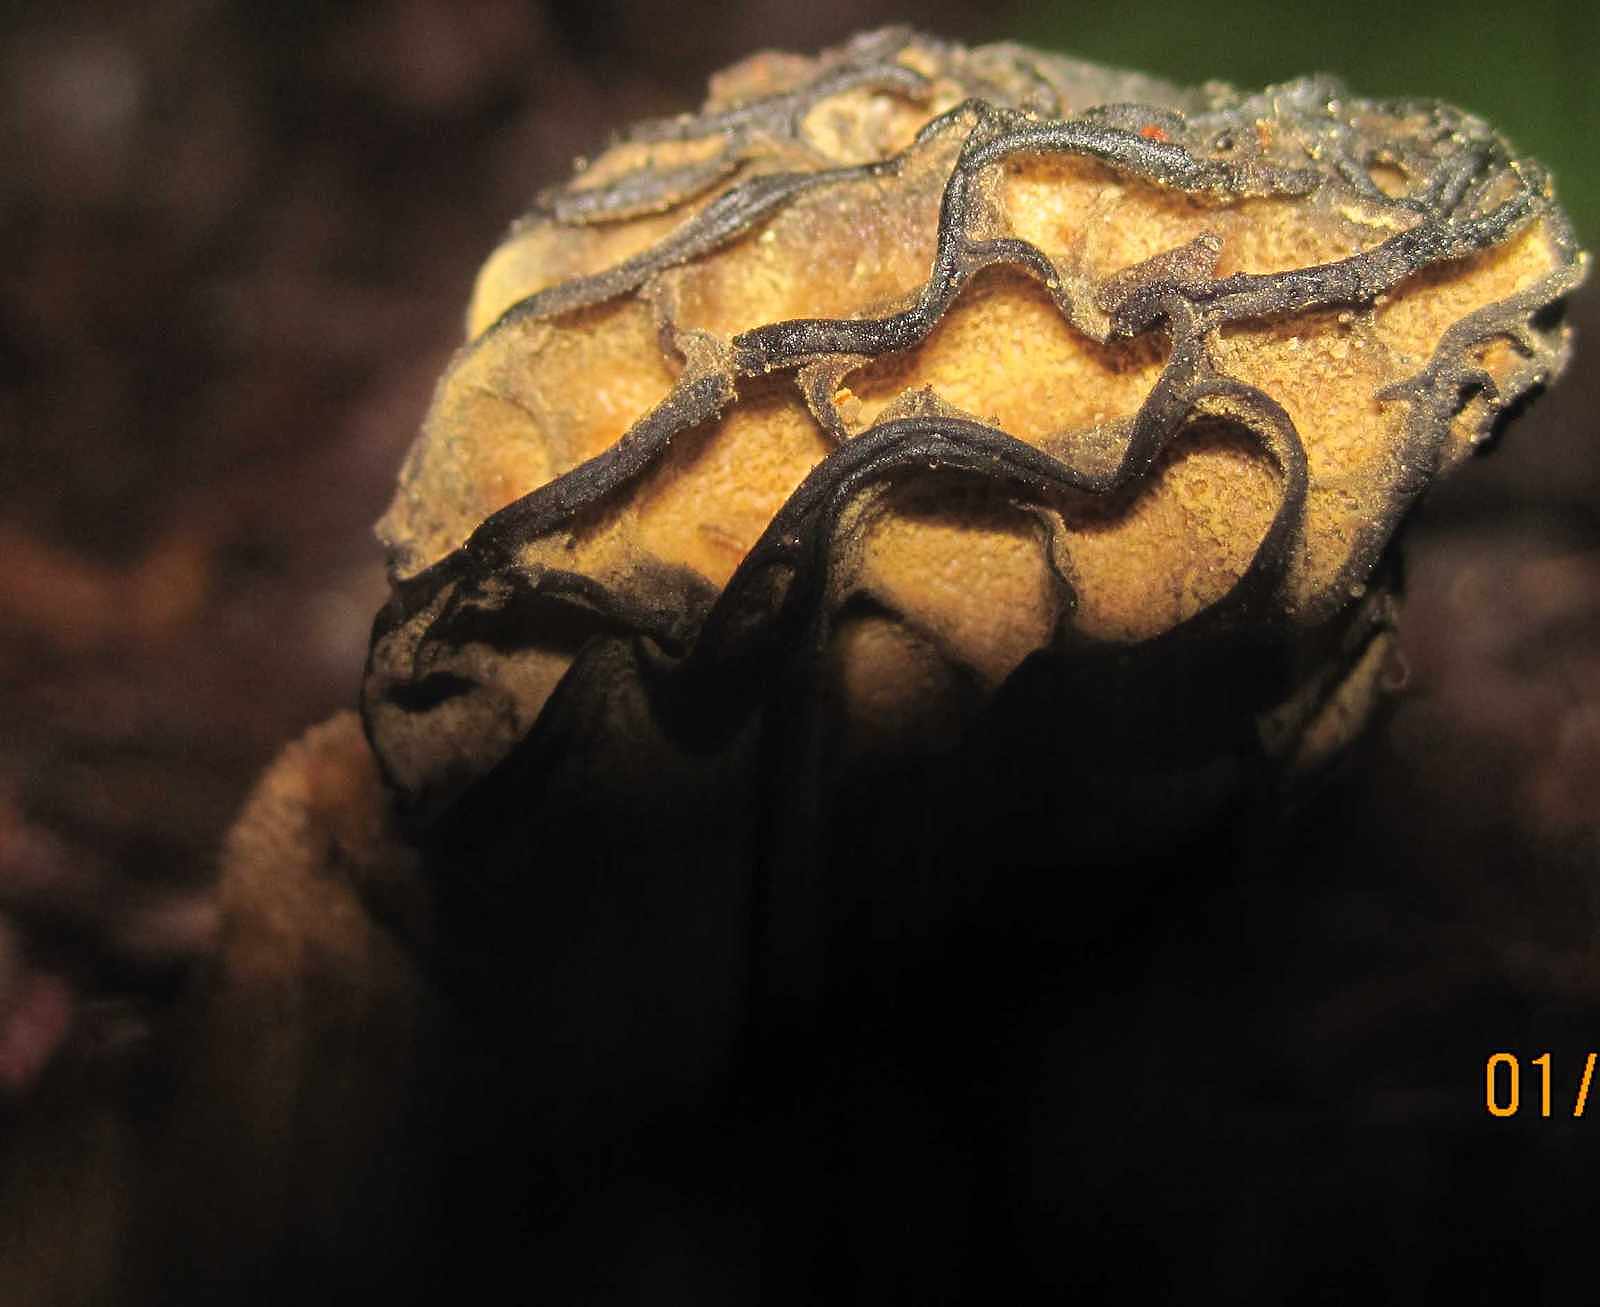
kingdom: Fungi
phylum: Ascomycota
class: Pezizomycetes
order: Pezizales
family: Morchellaceae
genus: Morchella
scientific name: Morchella semilibera
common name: hætte-morkel
